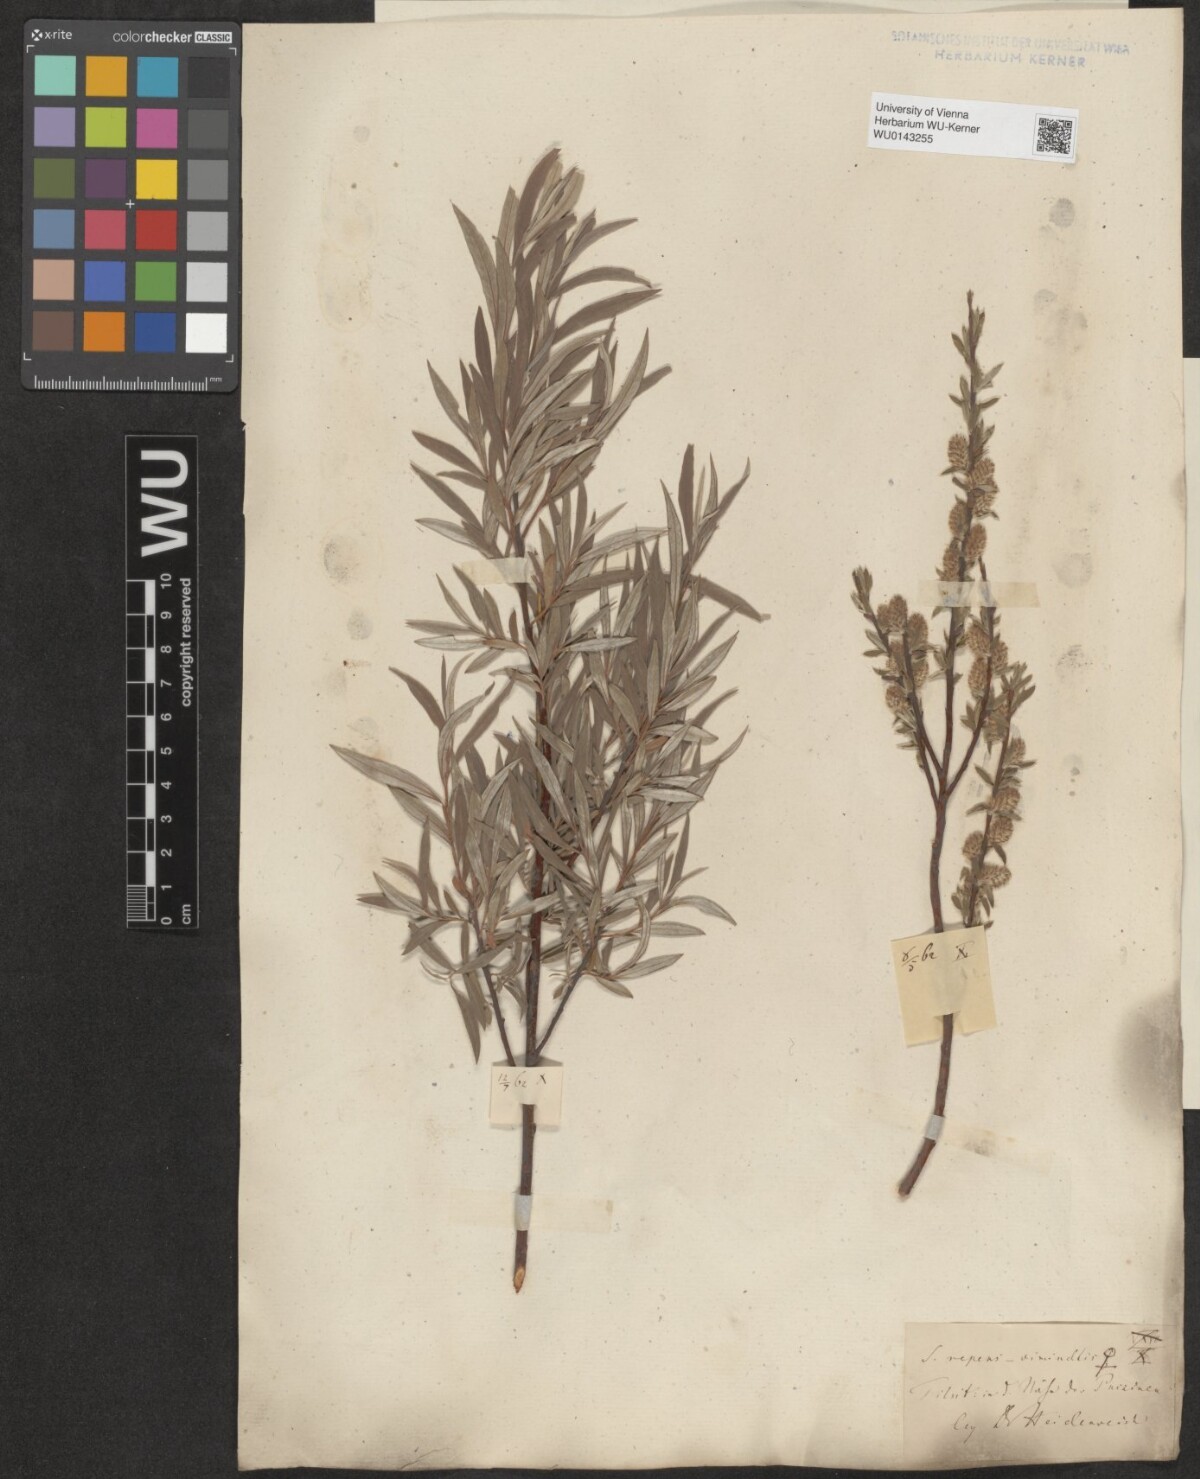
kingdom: Plantae
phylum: Tracheophyta
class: Magnoliopsida
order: Malpighiales
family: Salicaceae
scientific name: Salicaceae
